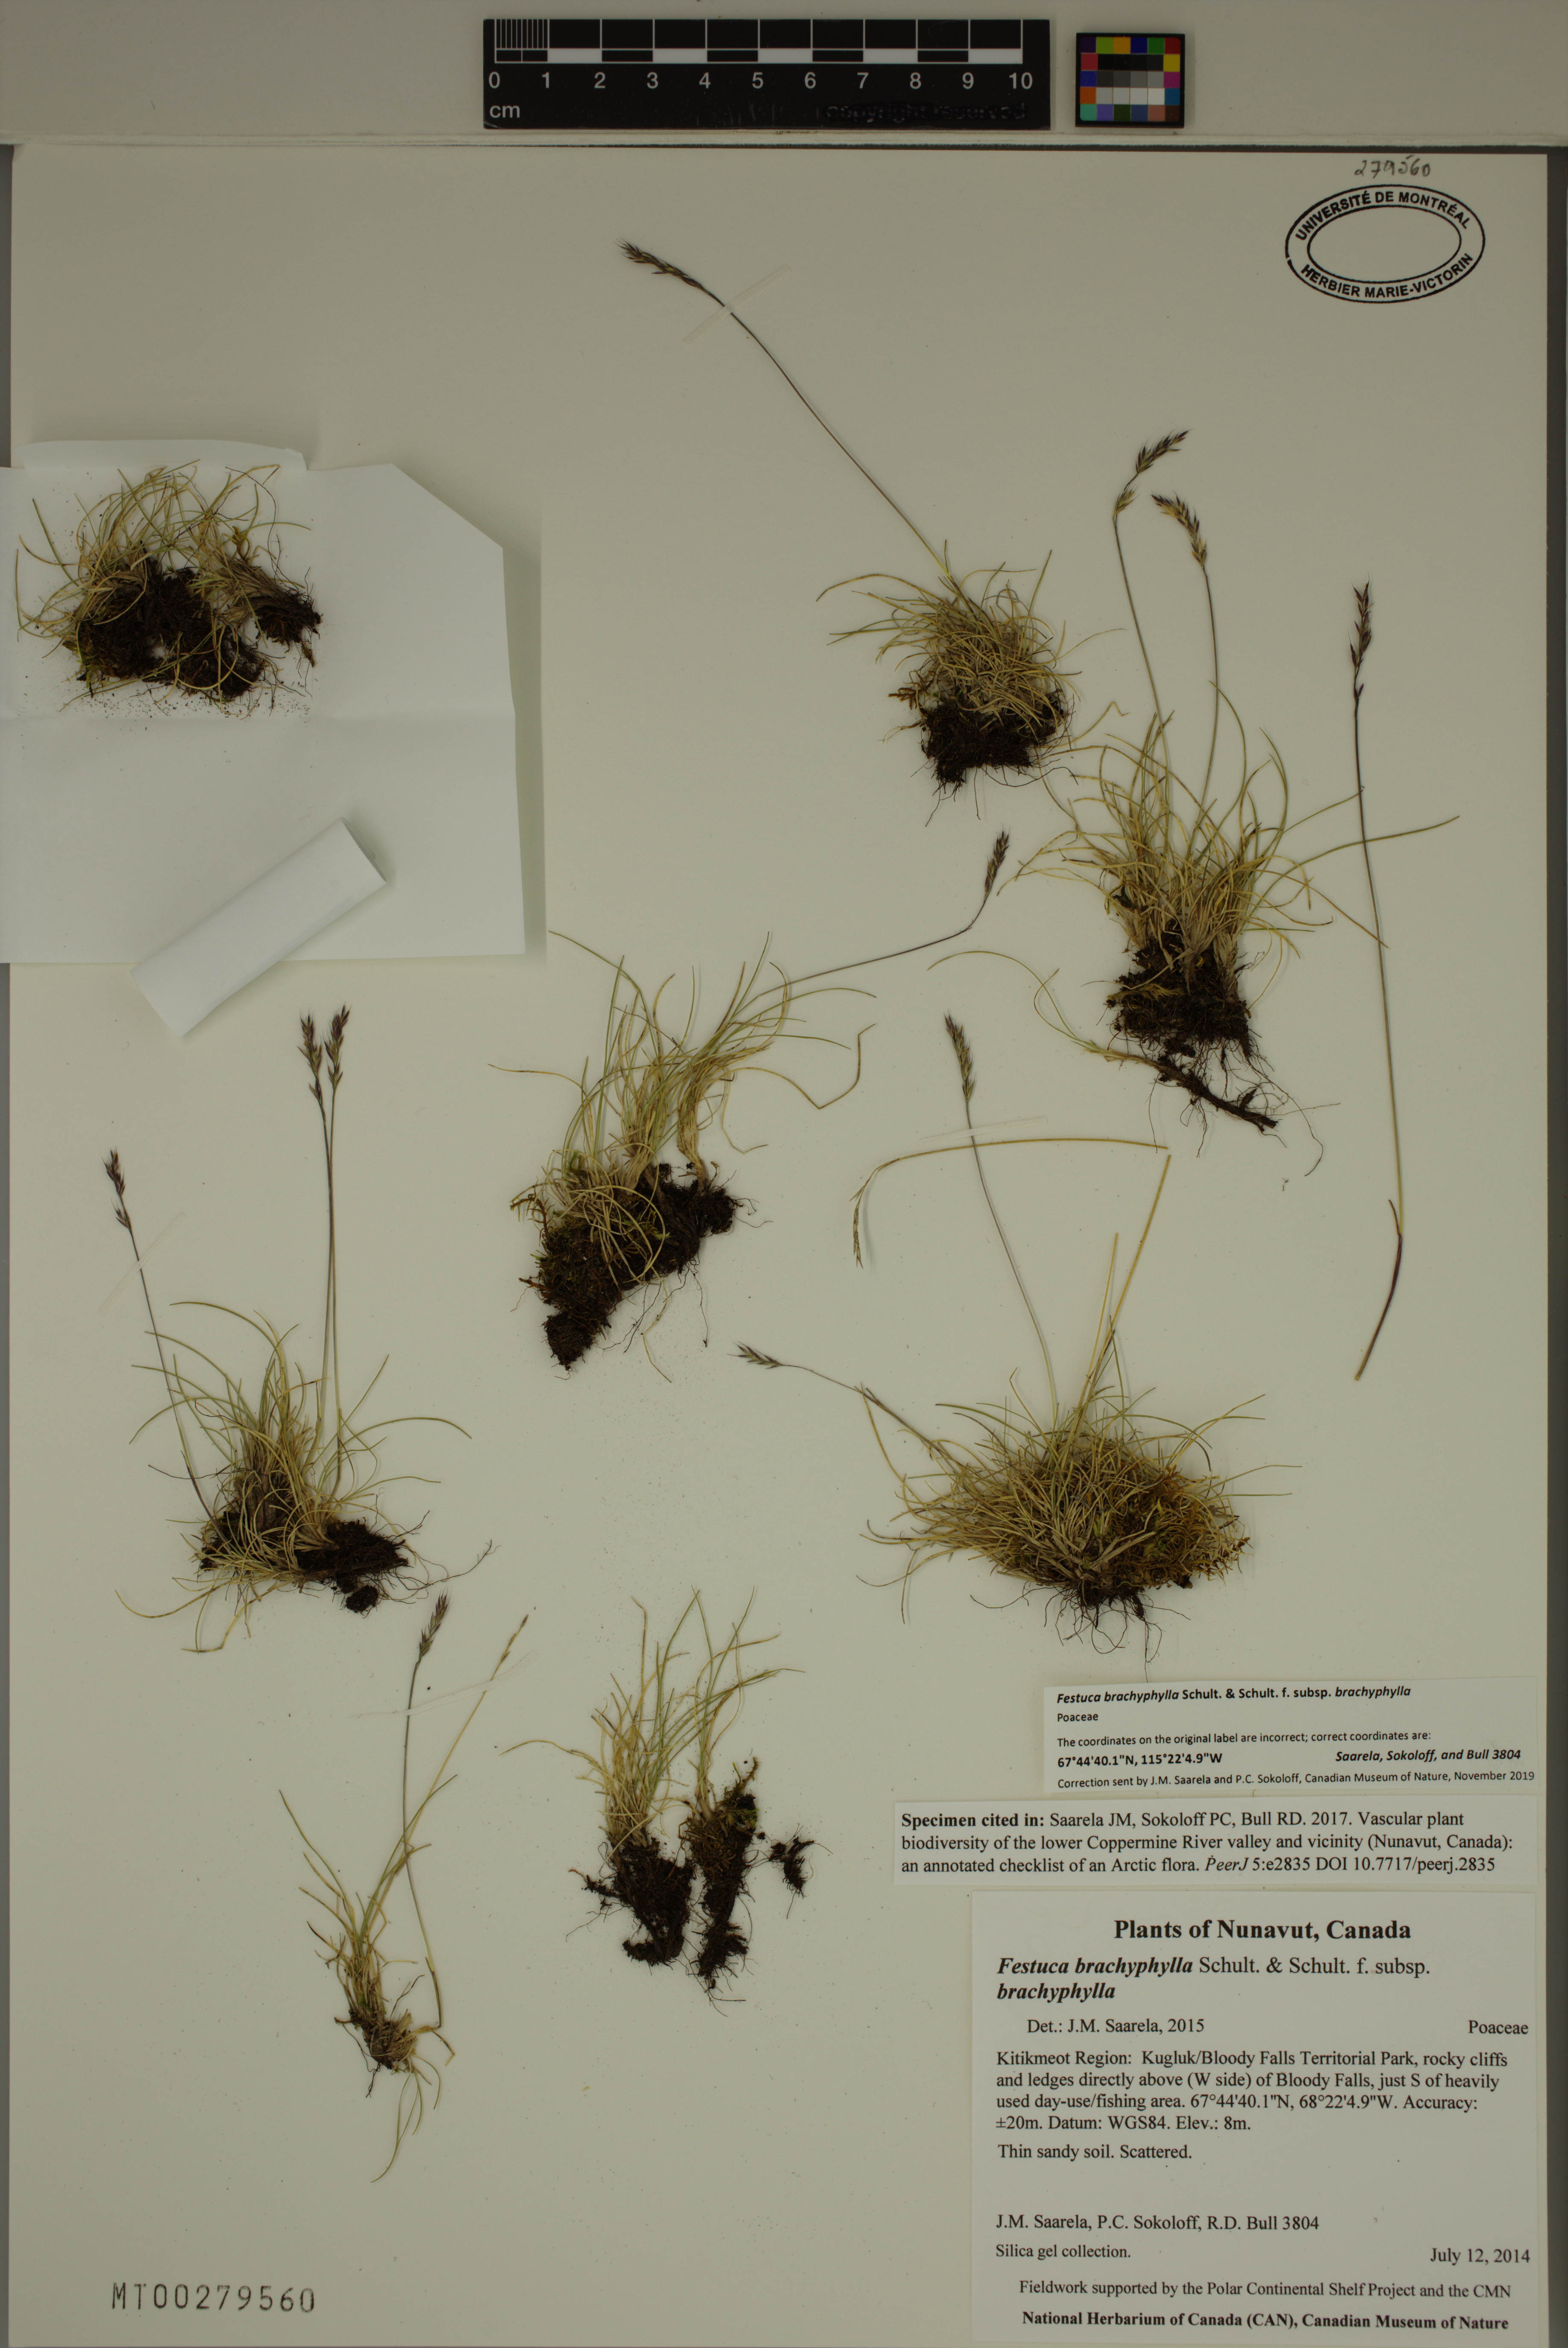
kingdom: Plantae
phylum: Tracheophyta
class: Liliopsida
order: Poales
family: Poaceae
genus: Festuca
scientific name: Festuca brachyphylla
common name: Alpine fescue
